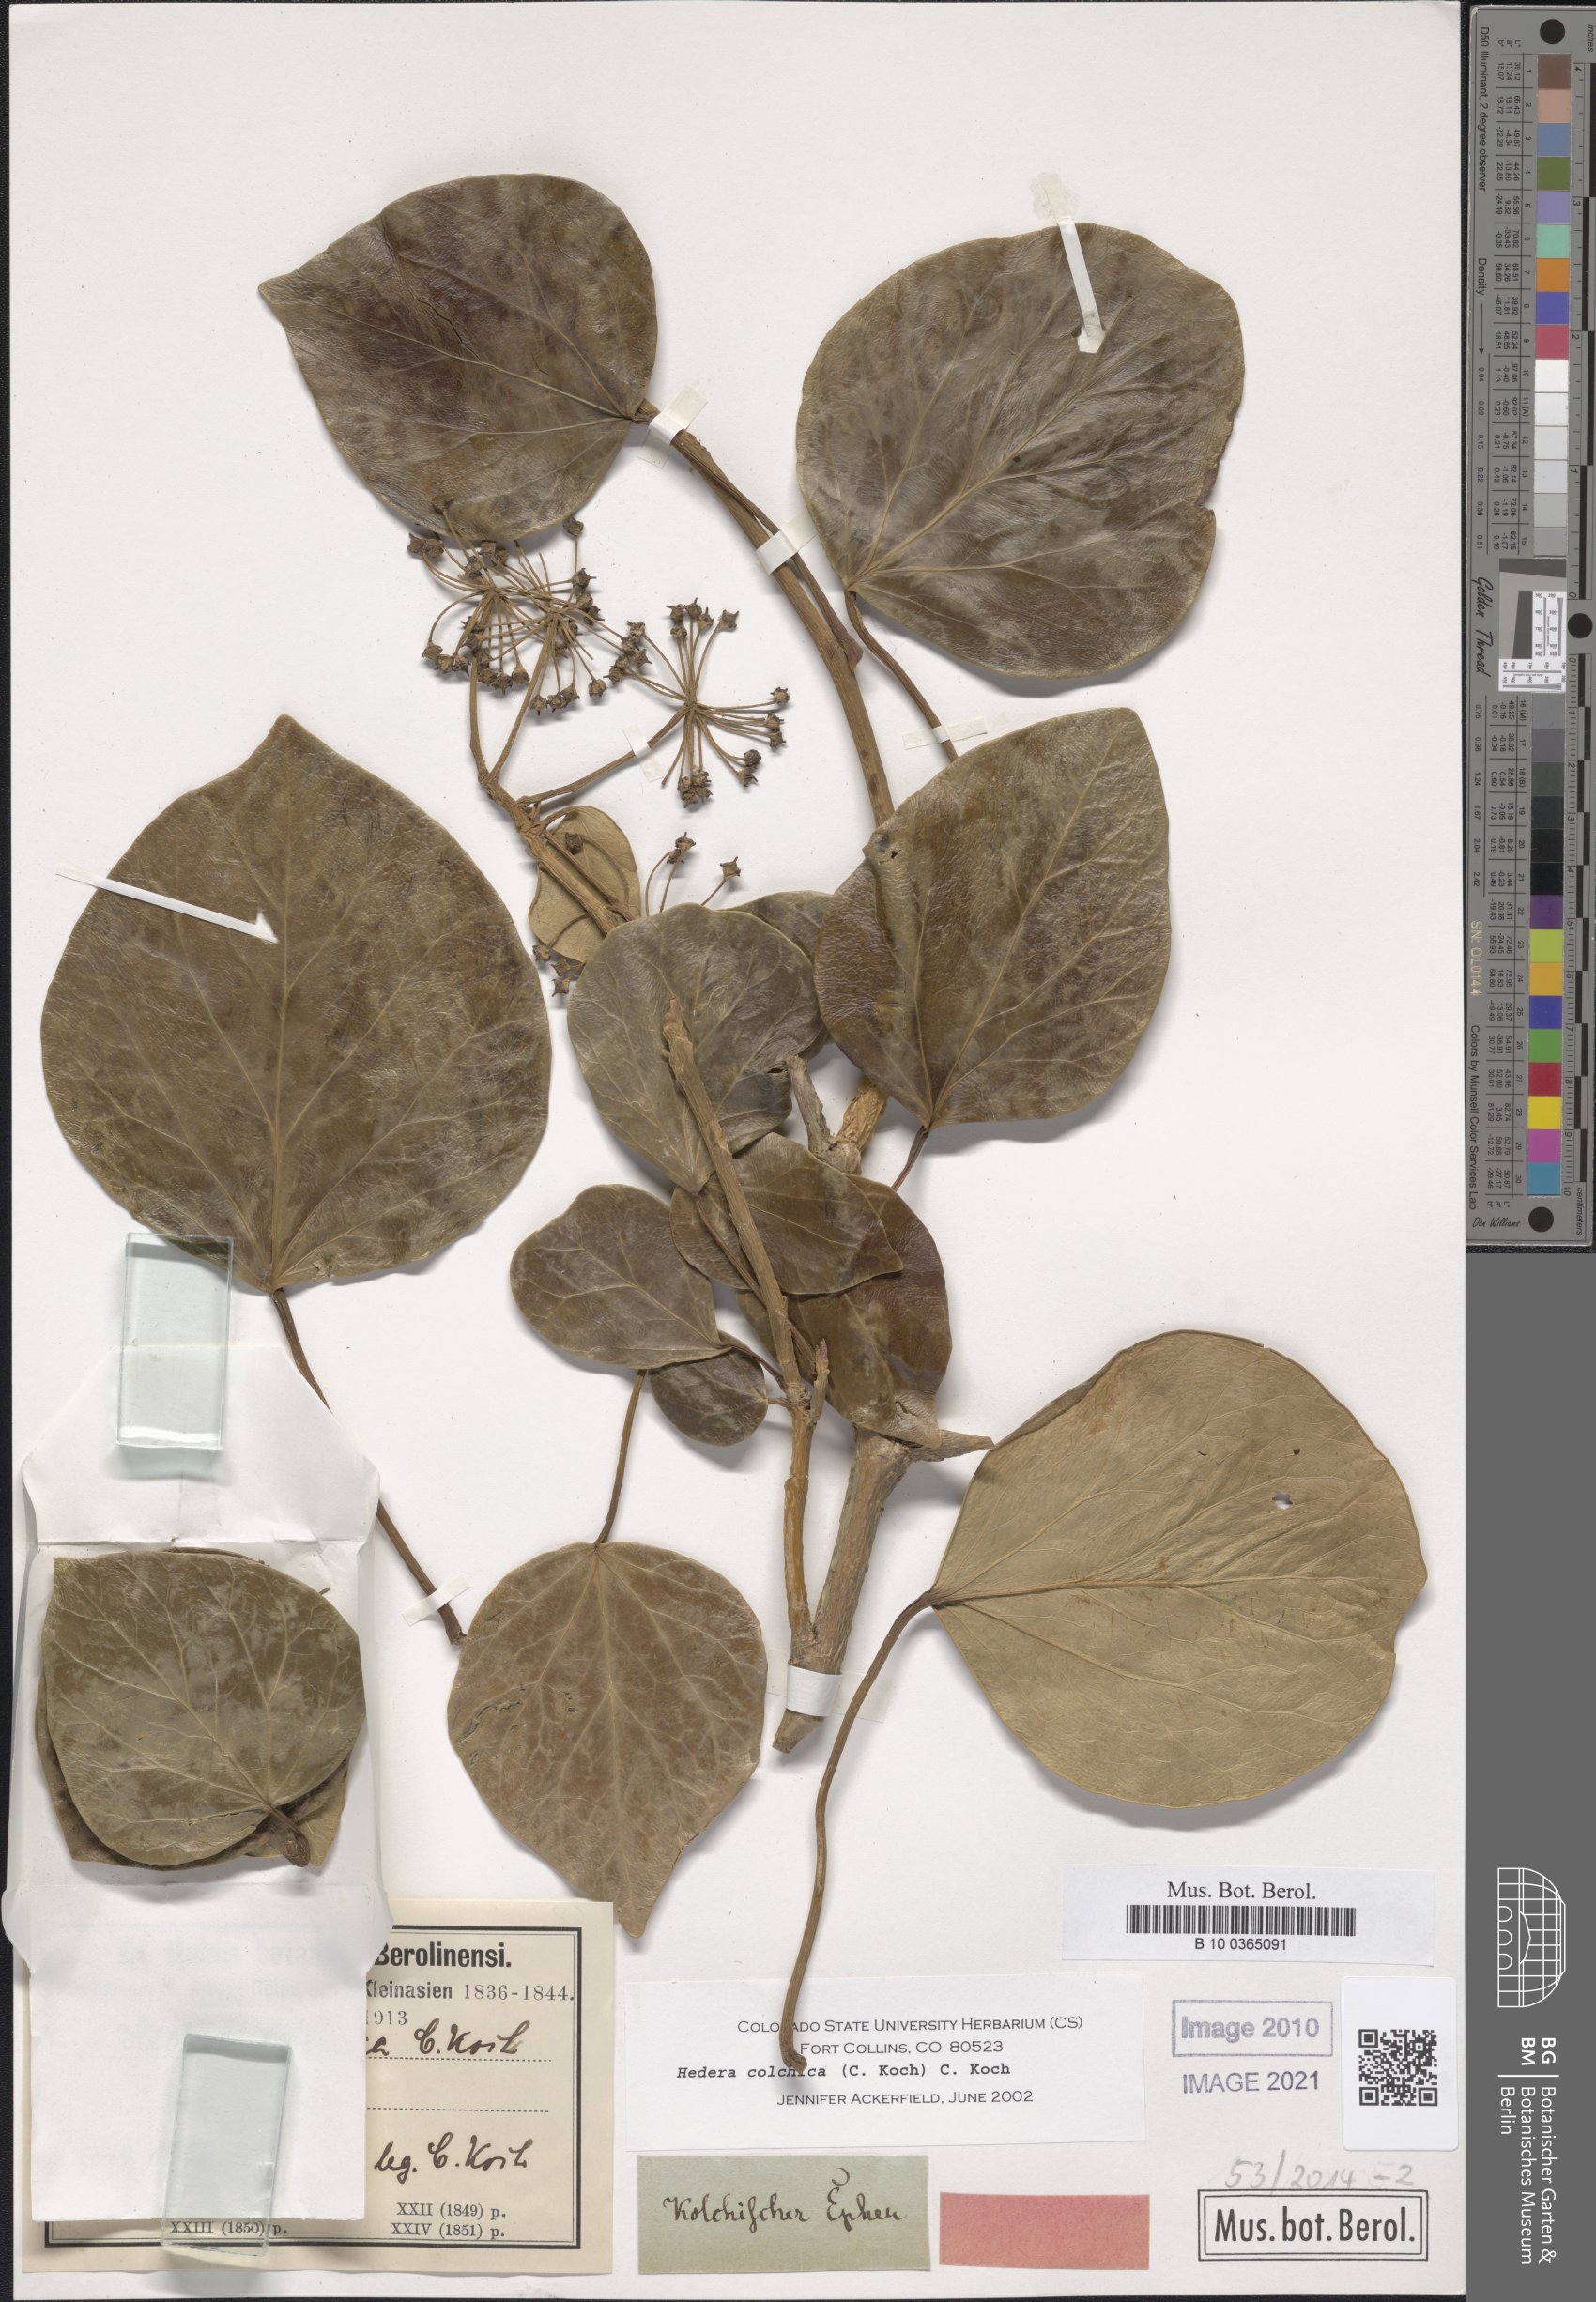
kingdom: Plantae
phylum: Tracheophyta
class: Magnoliopsida
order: Apiales
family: Araliaceae
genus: Hedera
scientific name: Hedera colchica
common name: Persian ivy
